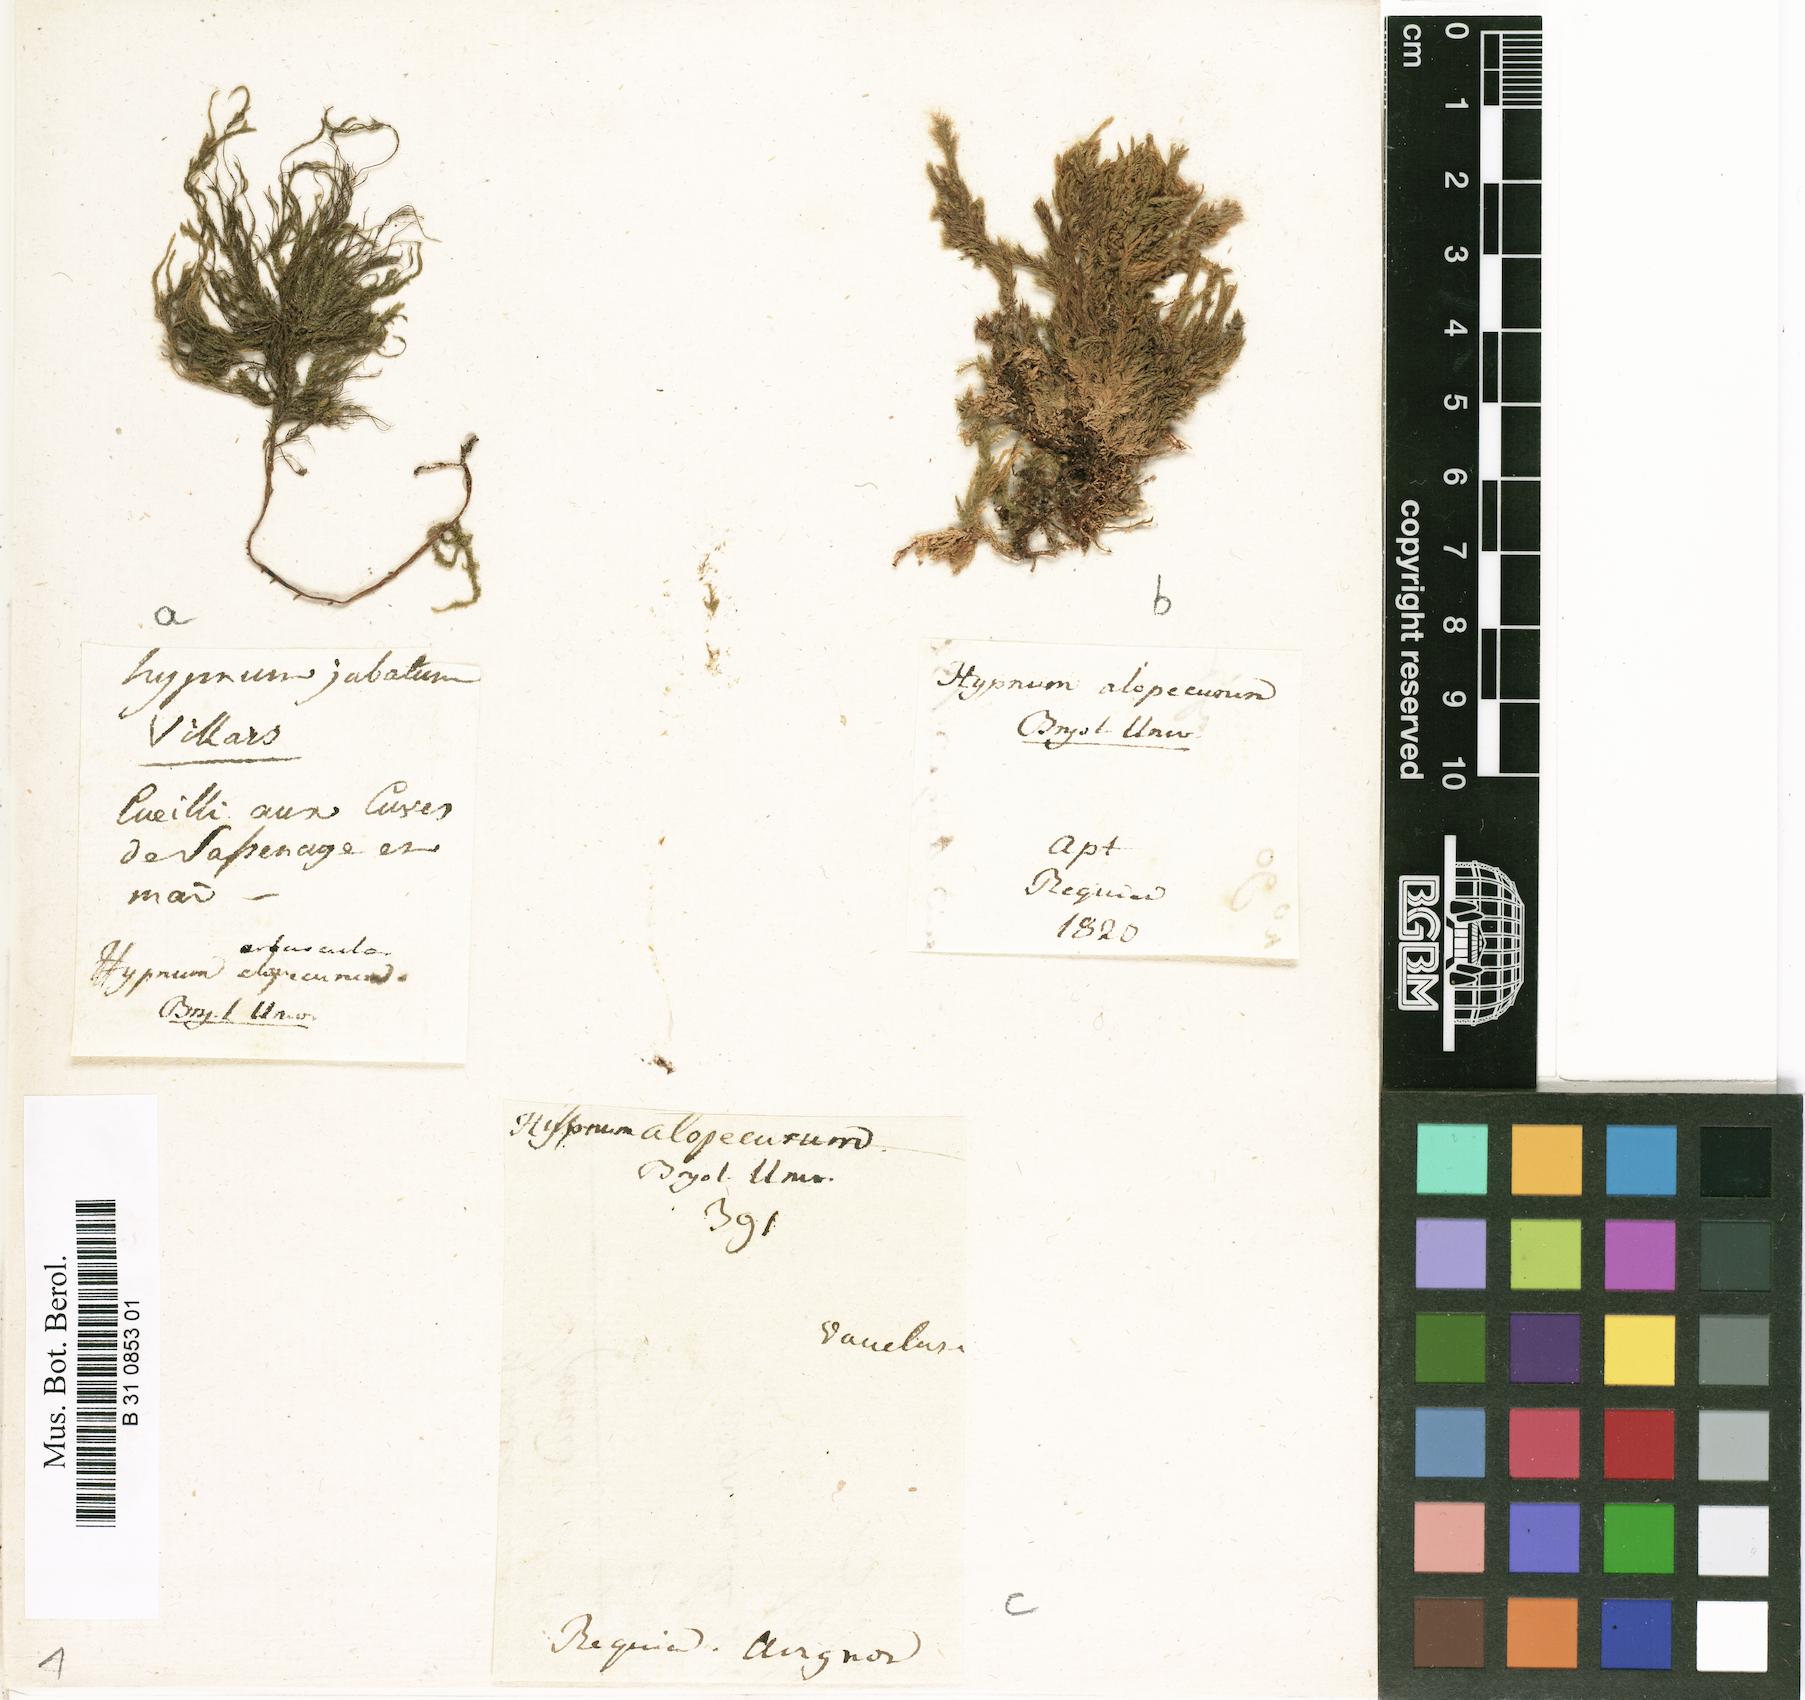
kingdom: Plantae
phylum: Bryophyta
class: Bryopsida
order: Hypnales
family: Neckeraceae
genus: Thamnobryum
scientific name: Thamnobryum alopecurum
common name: Fox-tail feather-moss
